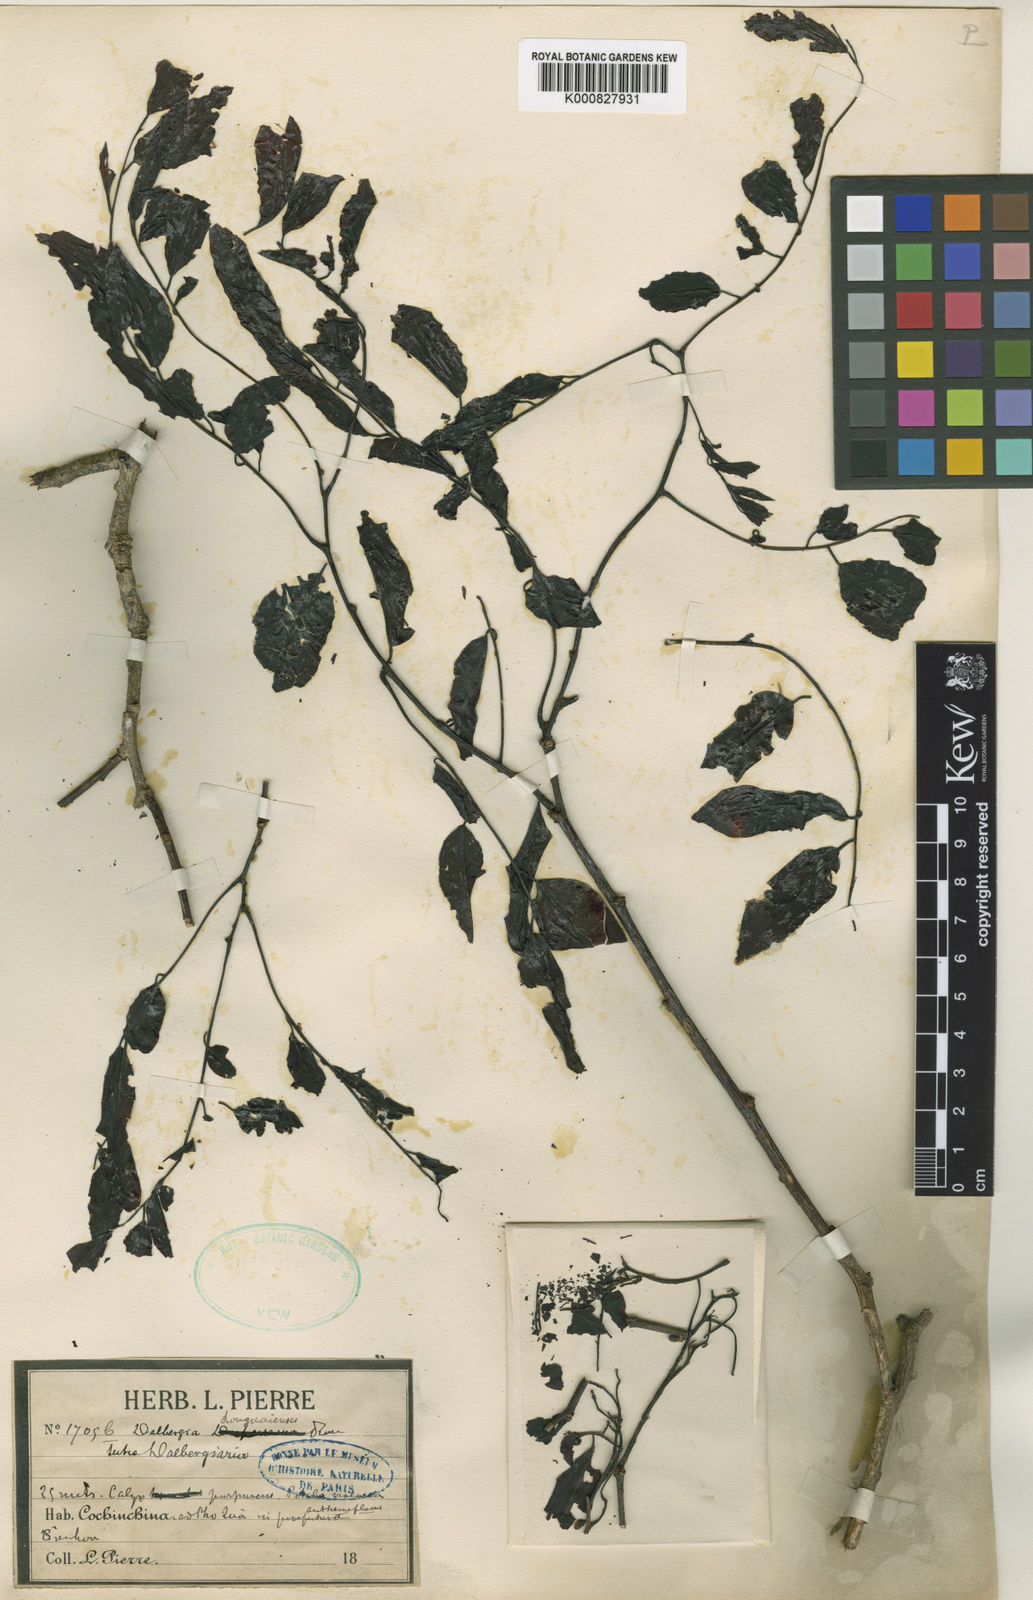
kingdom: Plantae
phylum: Tracheophyta
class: Magnoliopsida
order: Fabales
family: Fabaceae
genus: Dalbergia
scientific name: Dalbergia oliveri
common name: Burmese rosewood
